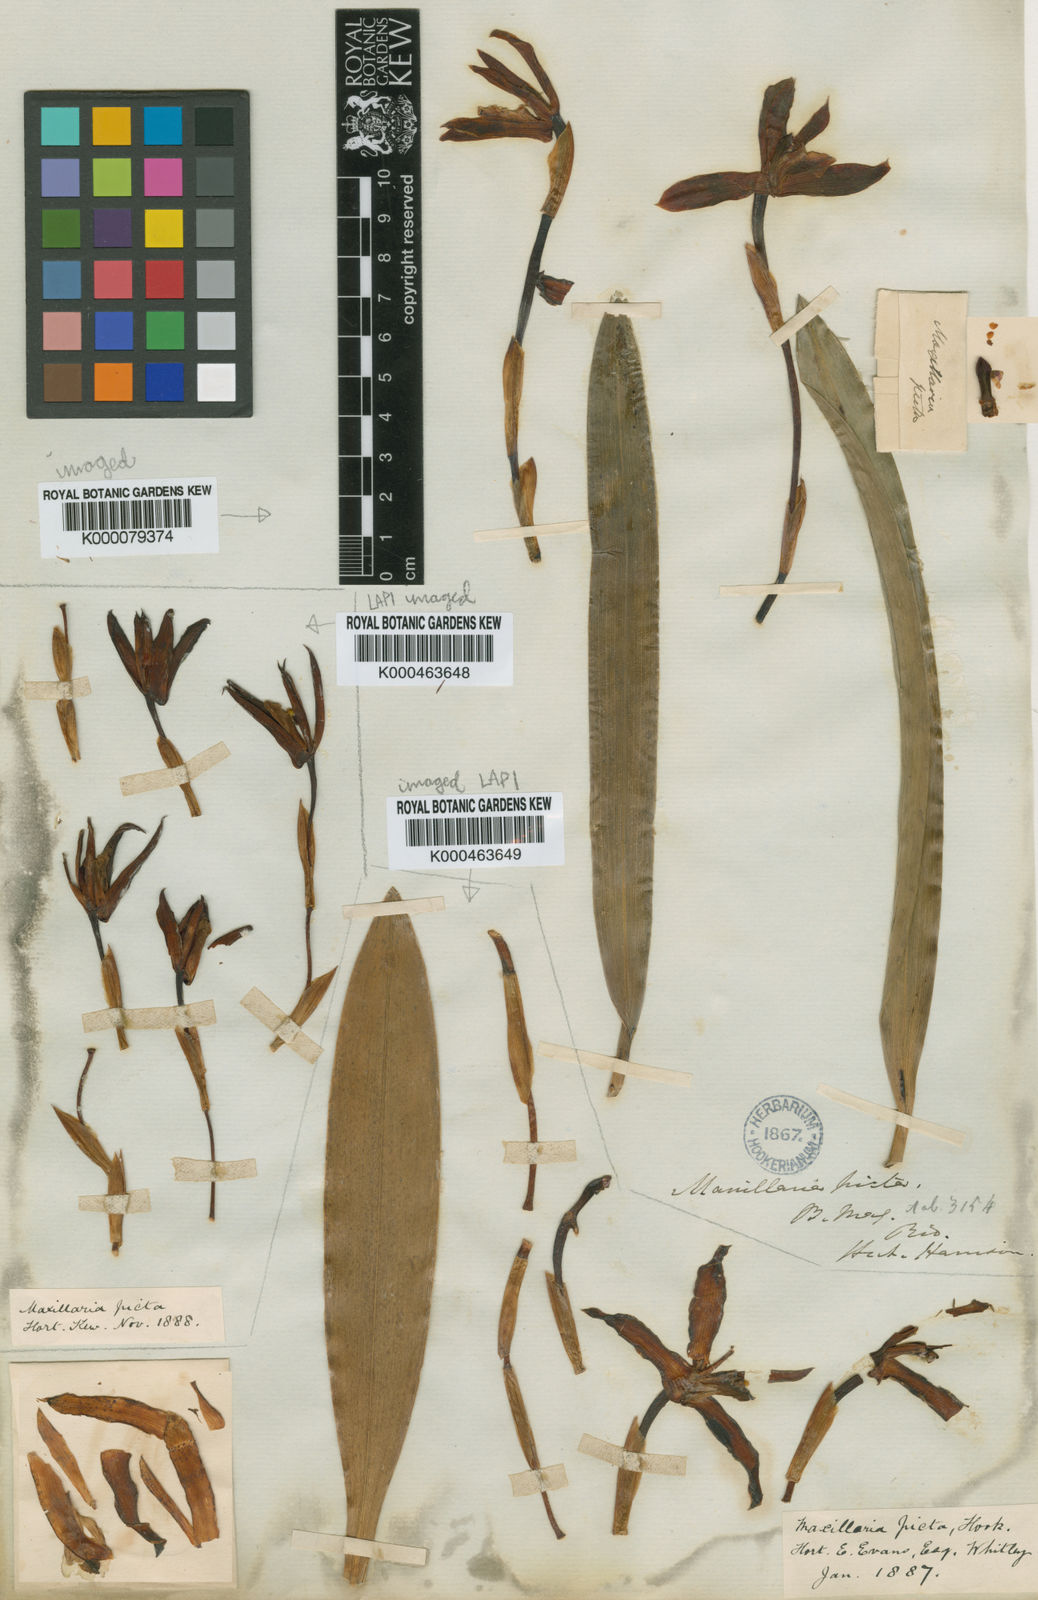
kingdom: Plantae
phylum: Tracheophyta
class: Liliopsida
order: Asparagales
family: Orchidaceae
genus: Maxillaria
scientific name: Maxillaria picta
